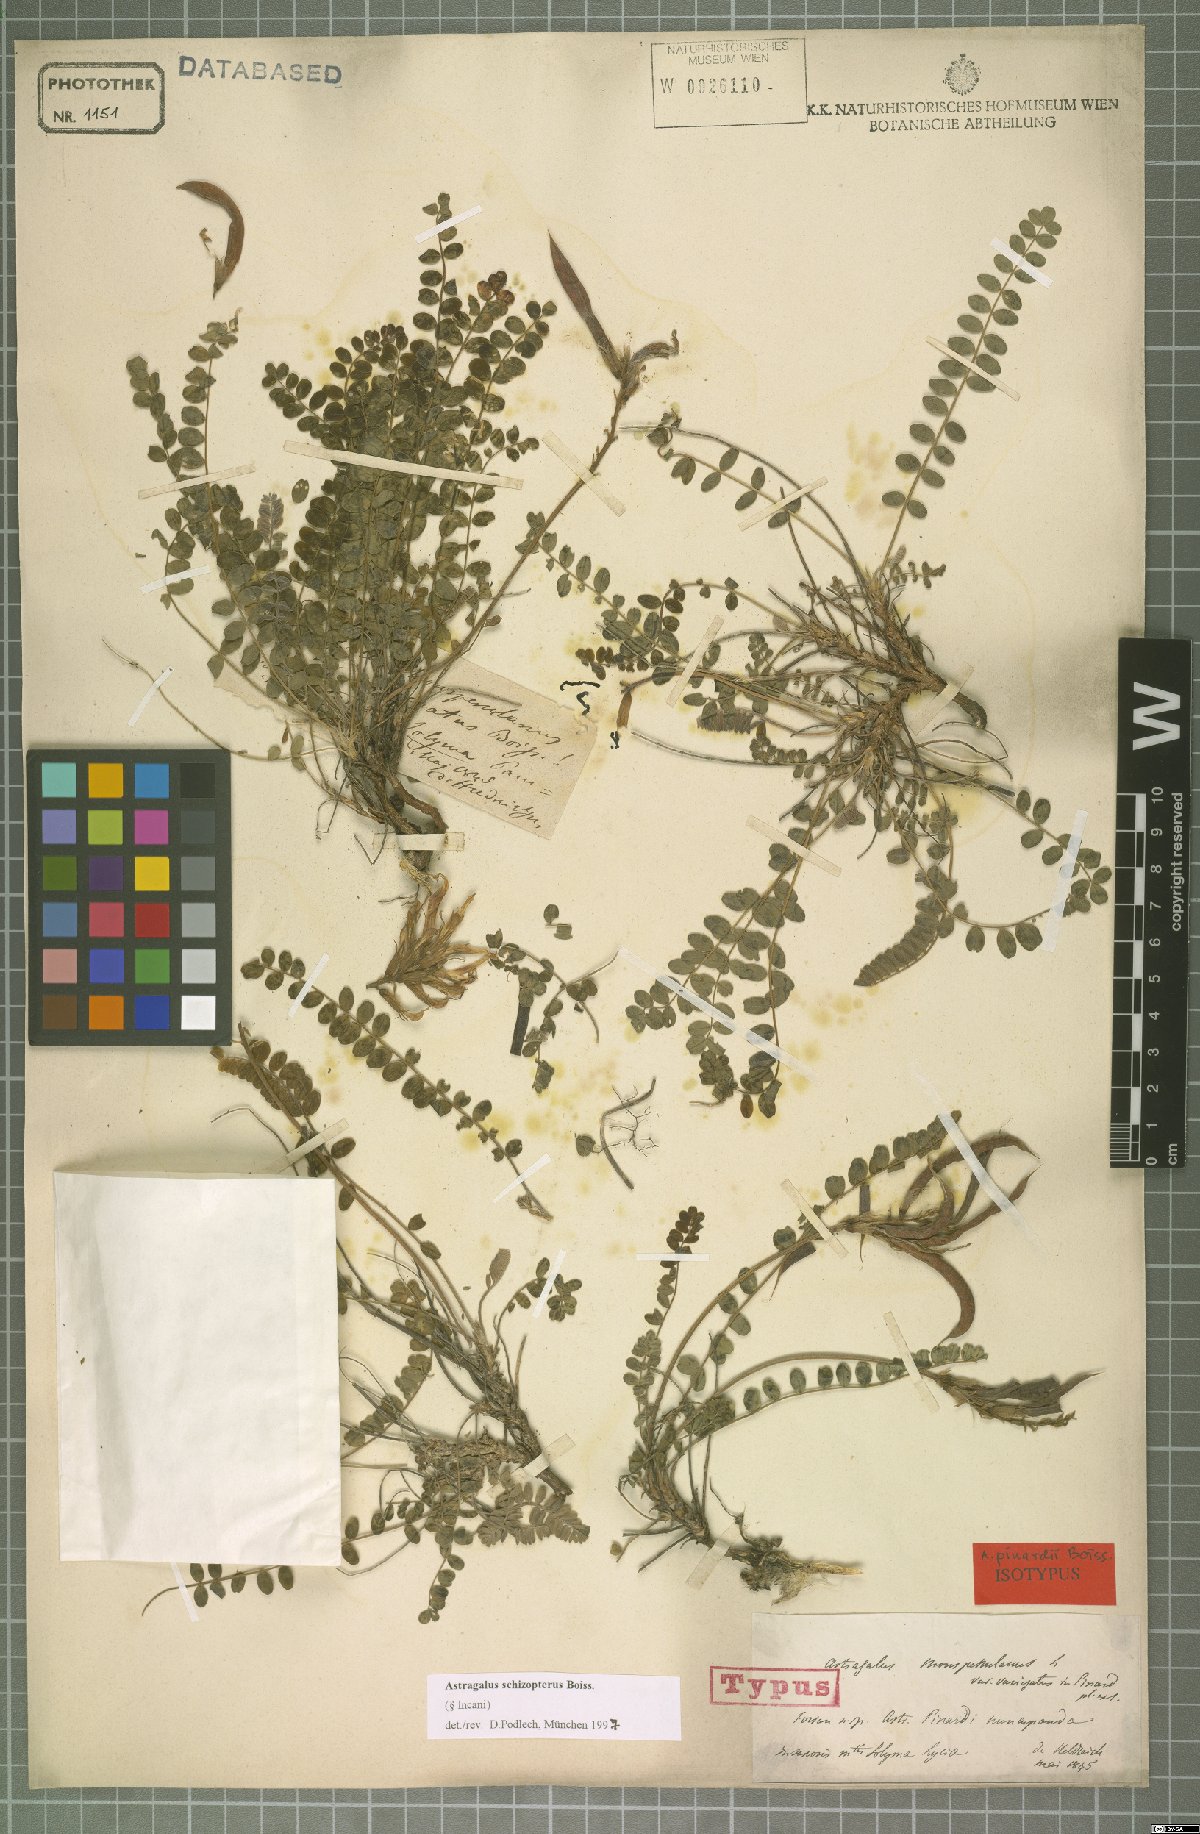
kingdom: Plantae
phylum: Tracheophyta
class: Magnoliopsida
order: Fabales
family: Fabaceae
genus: Astragalus
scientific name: Astragalus schizopterus
